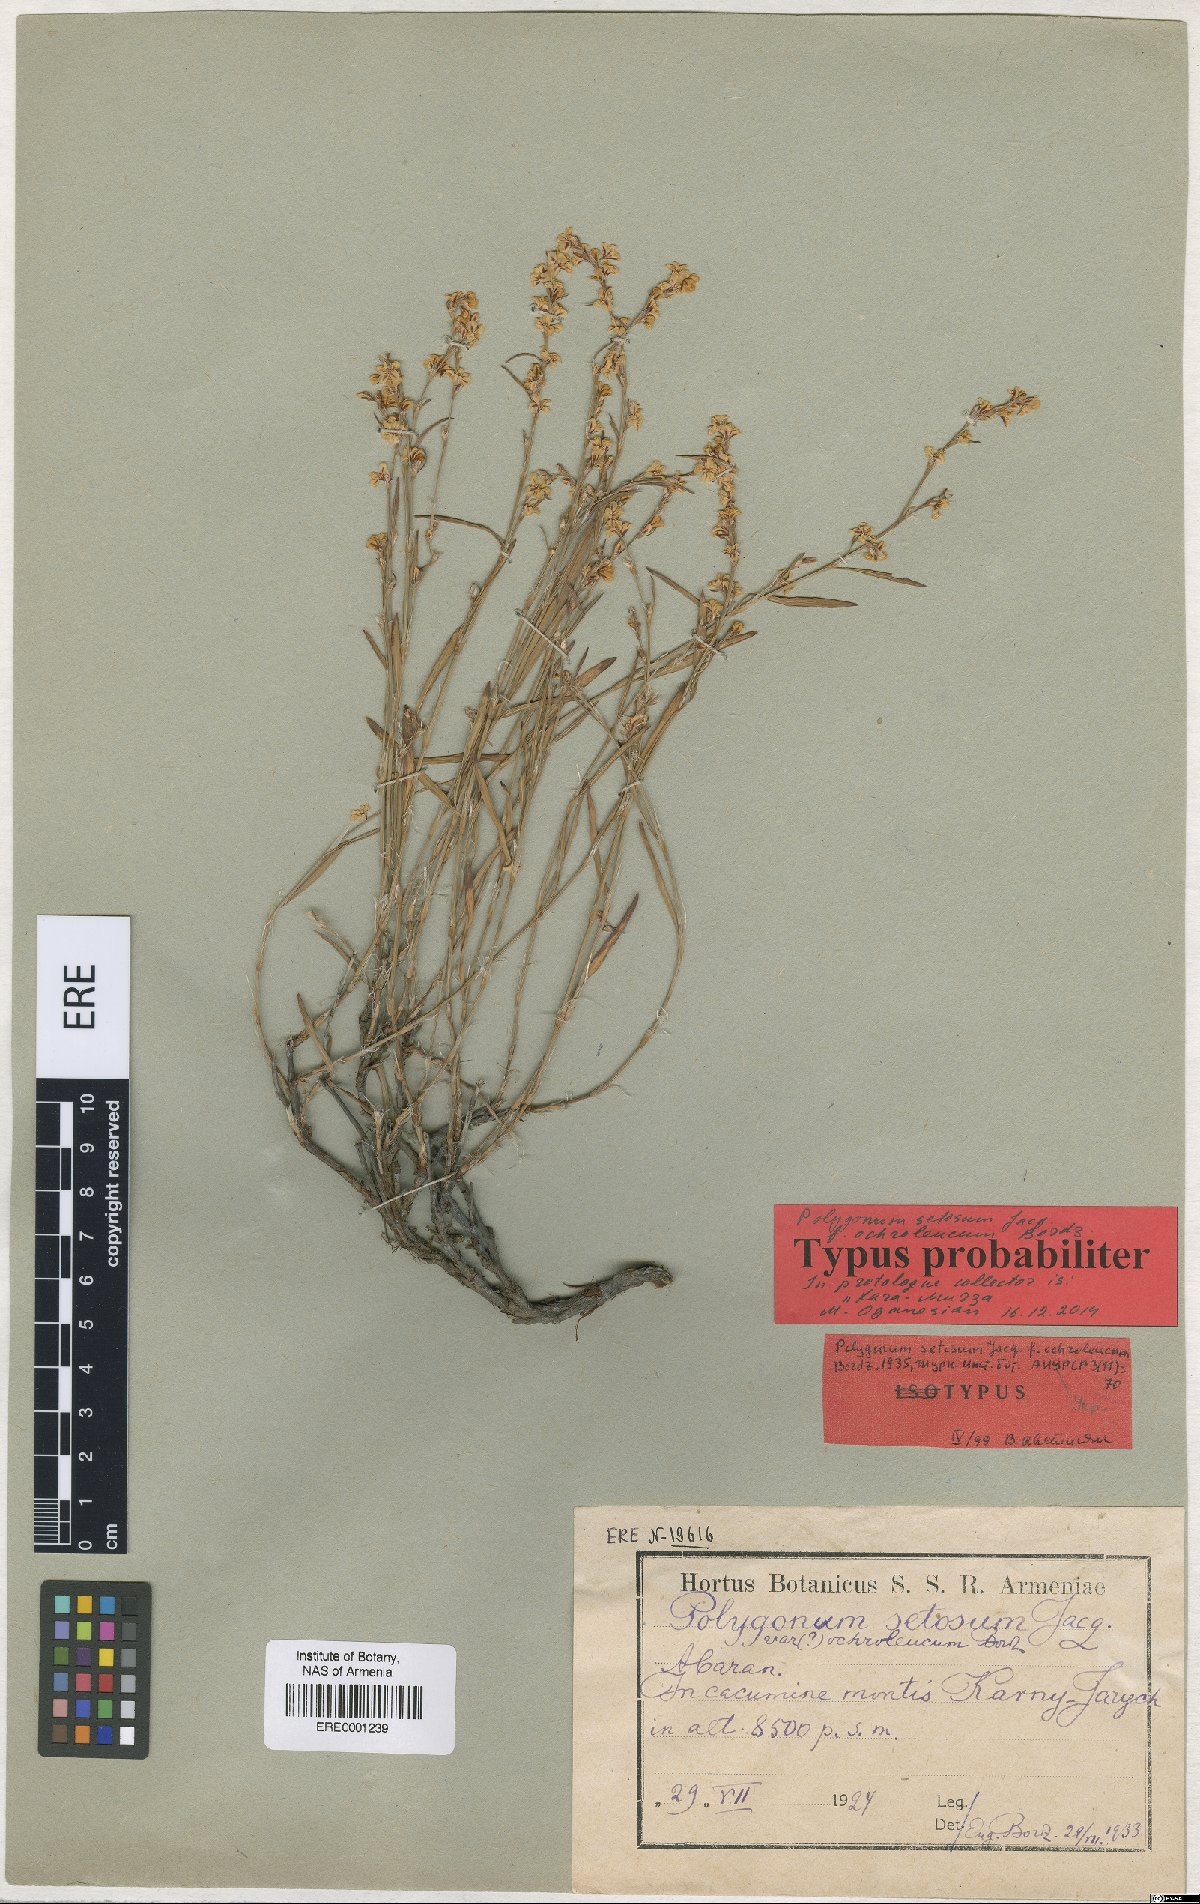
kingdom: Plantae
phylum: Tracheophyta
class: Magnoliopsida
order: Caryophyllales
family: Polygonaceae
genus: Polygonum
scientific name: Polygonum setosum
